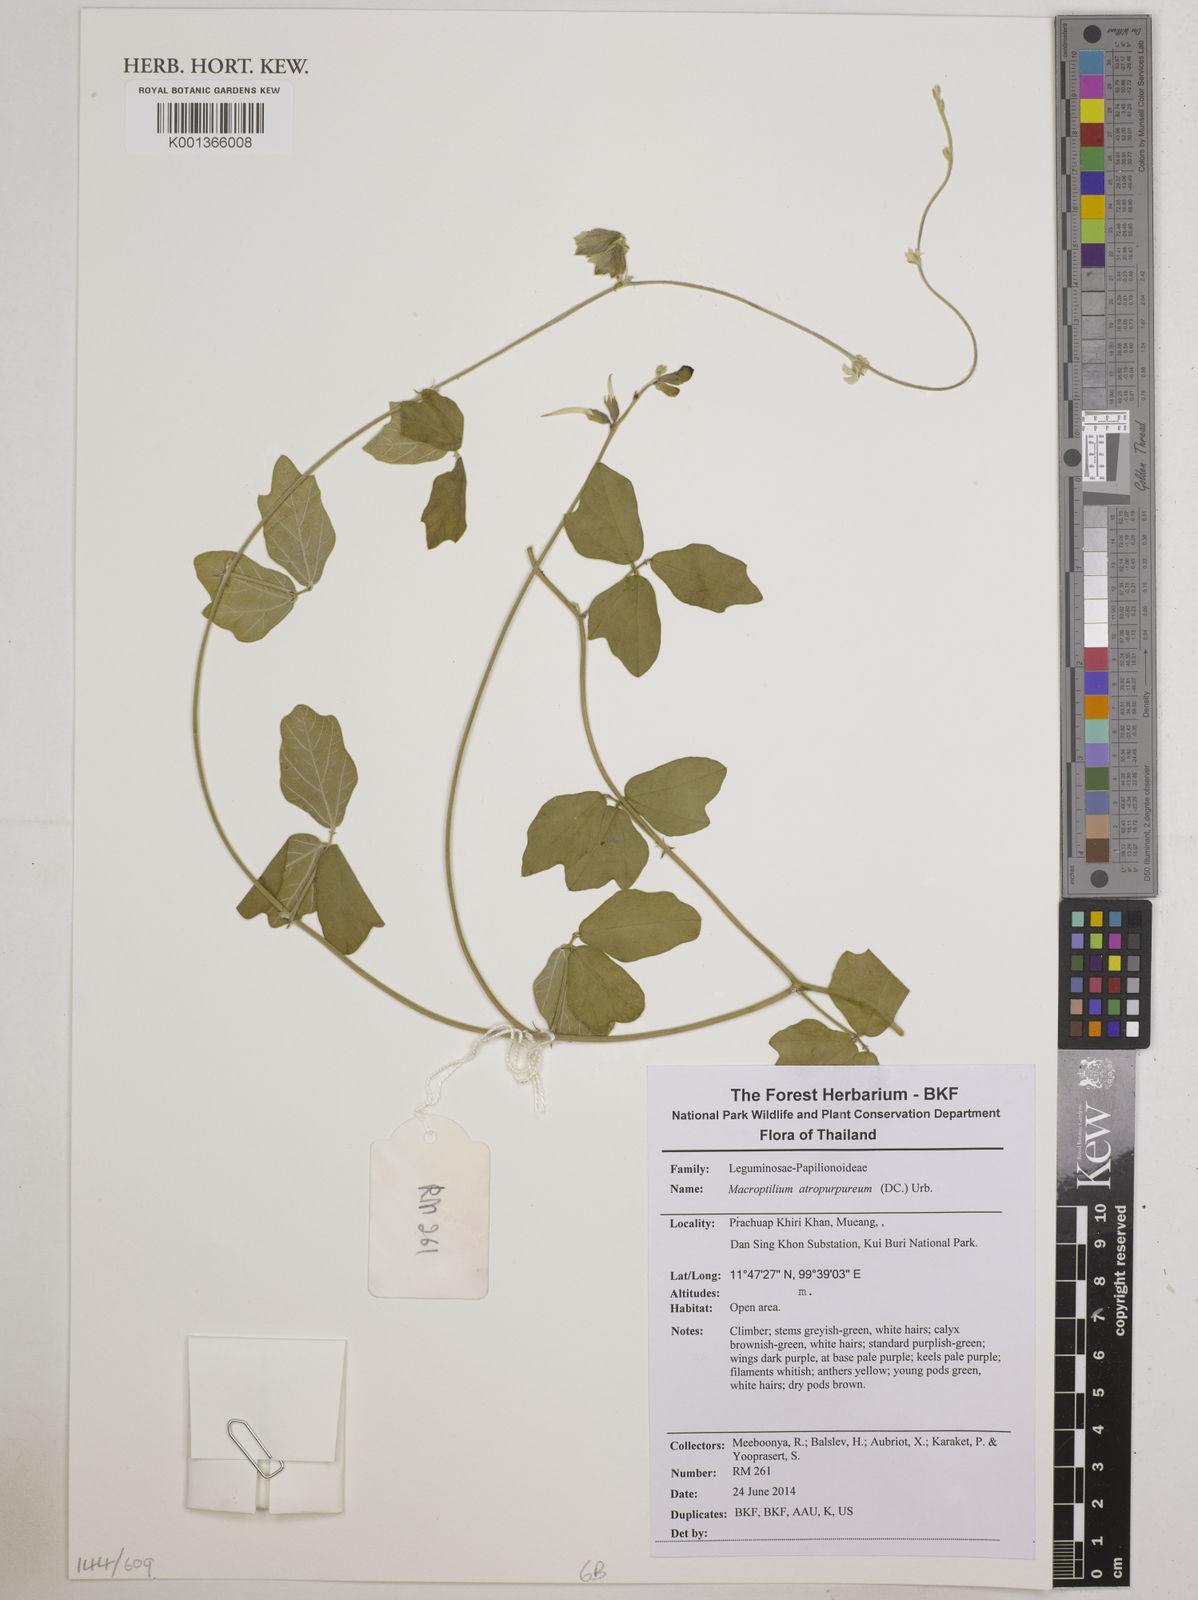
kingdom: Plantae
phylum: Tracheophyta
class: Magnoliopsida
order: Fabales
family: Fabaceae
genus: Macroptilium
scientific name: Macroptilium atropurpureum
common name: Purple bushbean
